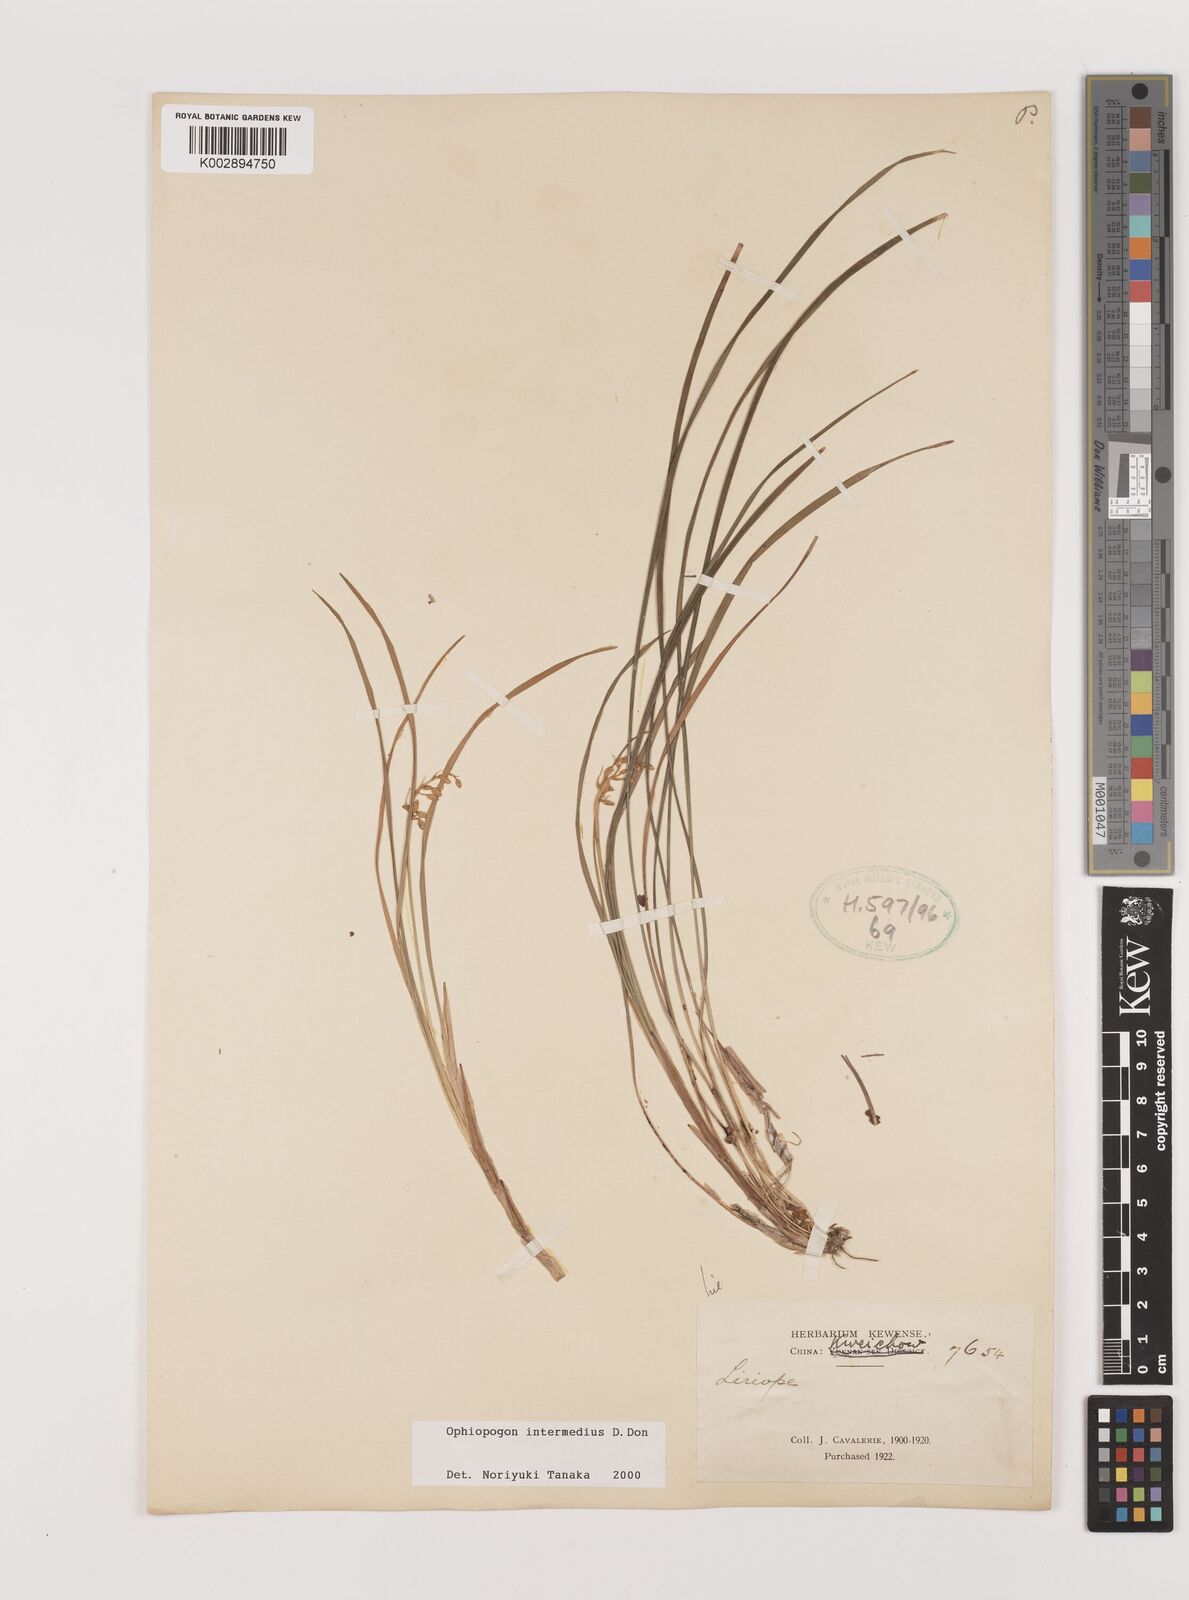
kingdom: Plantae
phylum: Tracheophyta
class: Liliopsida
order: Asparagales
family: Asparagaceae
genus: Ophiopogon
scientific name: Ophiopogon intermedius
